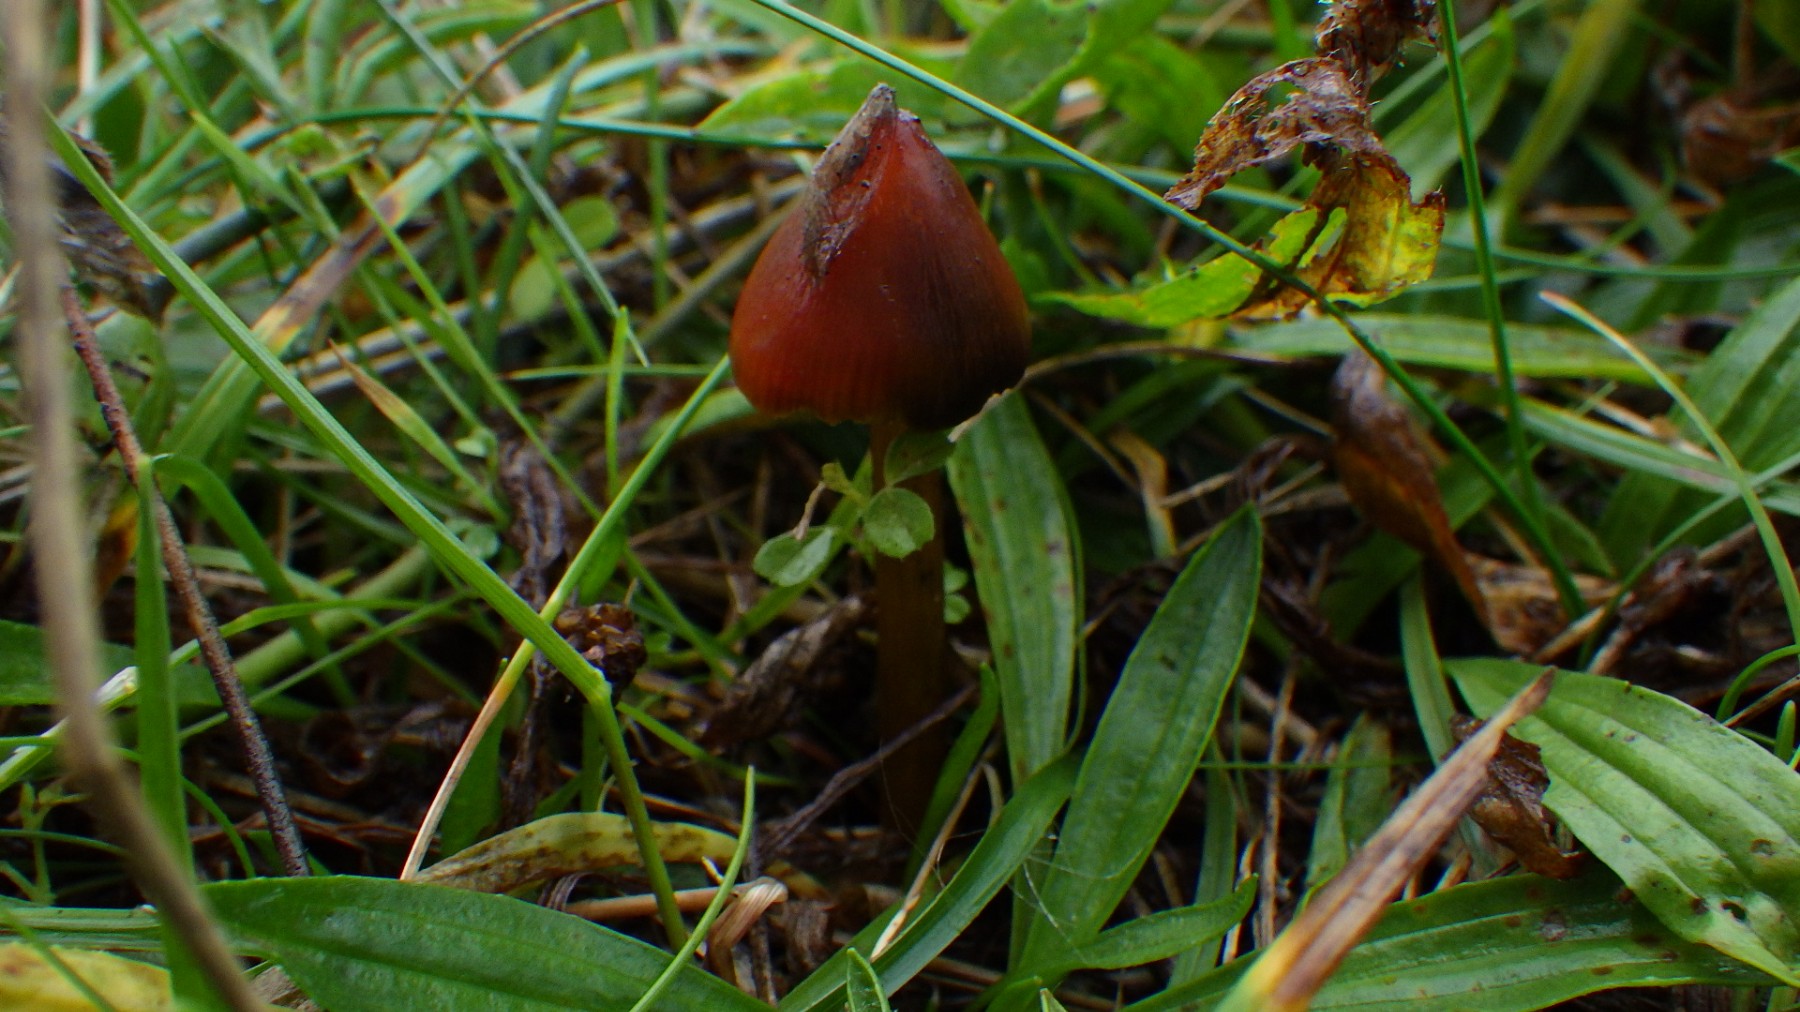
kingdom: Fungi
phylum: Basidiomycota
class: Agaricomycetes
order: Agaricales
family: Hygrophoraceae
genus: Hygrocybe
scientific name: Hygrocybe conica
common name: kegle-vokshat
